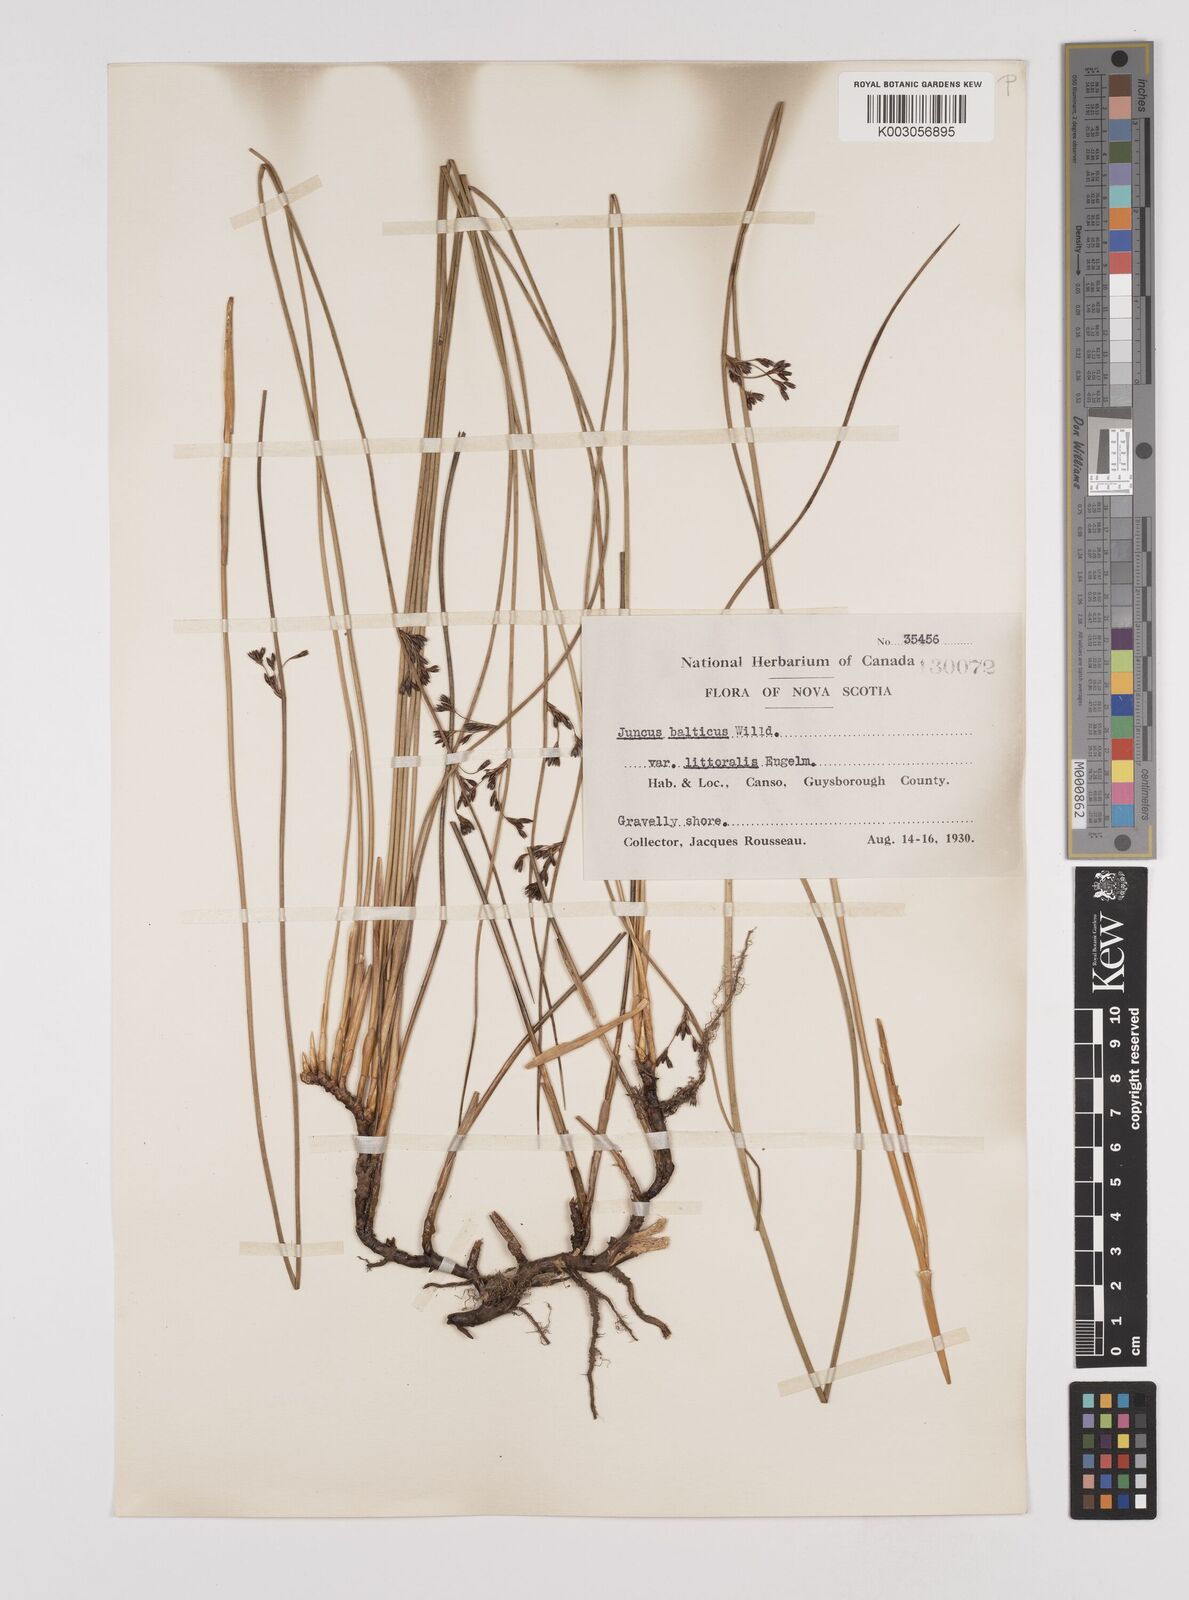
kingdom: Plantae
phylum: Tracheophyta
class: Liliopsida
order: Poales
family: Juncaceae
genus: Juncus
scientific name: Juncus balticus
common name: Baltic rush
